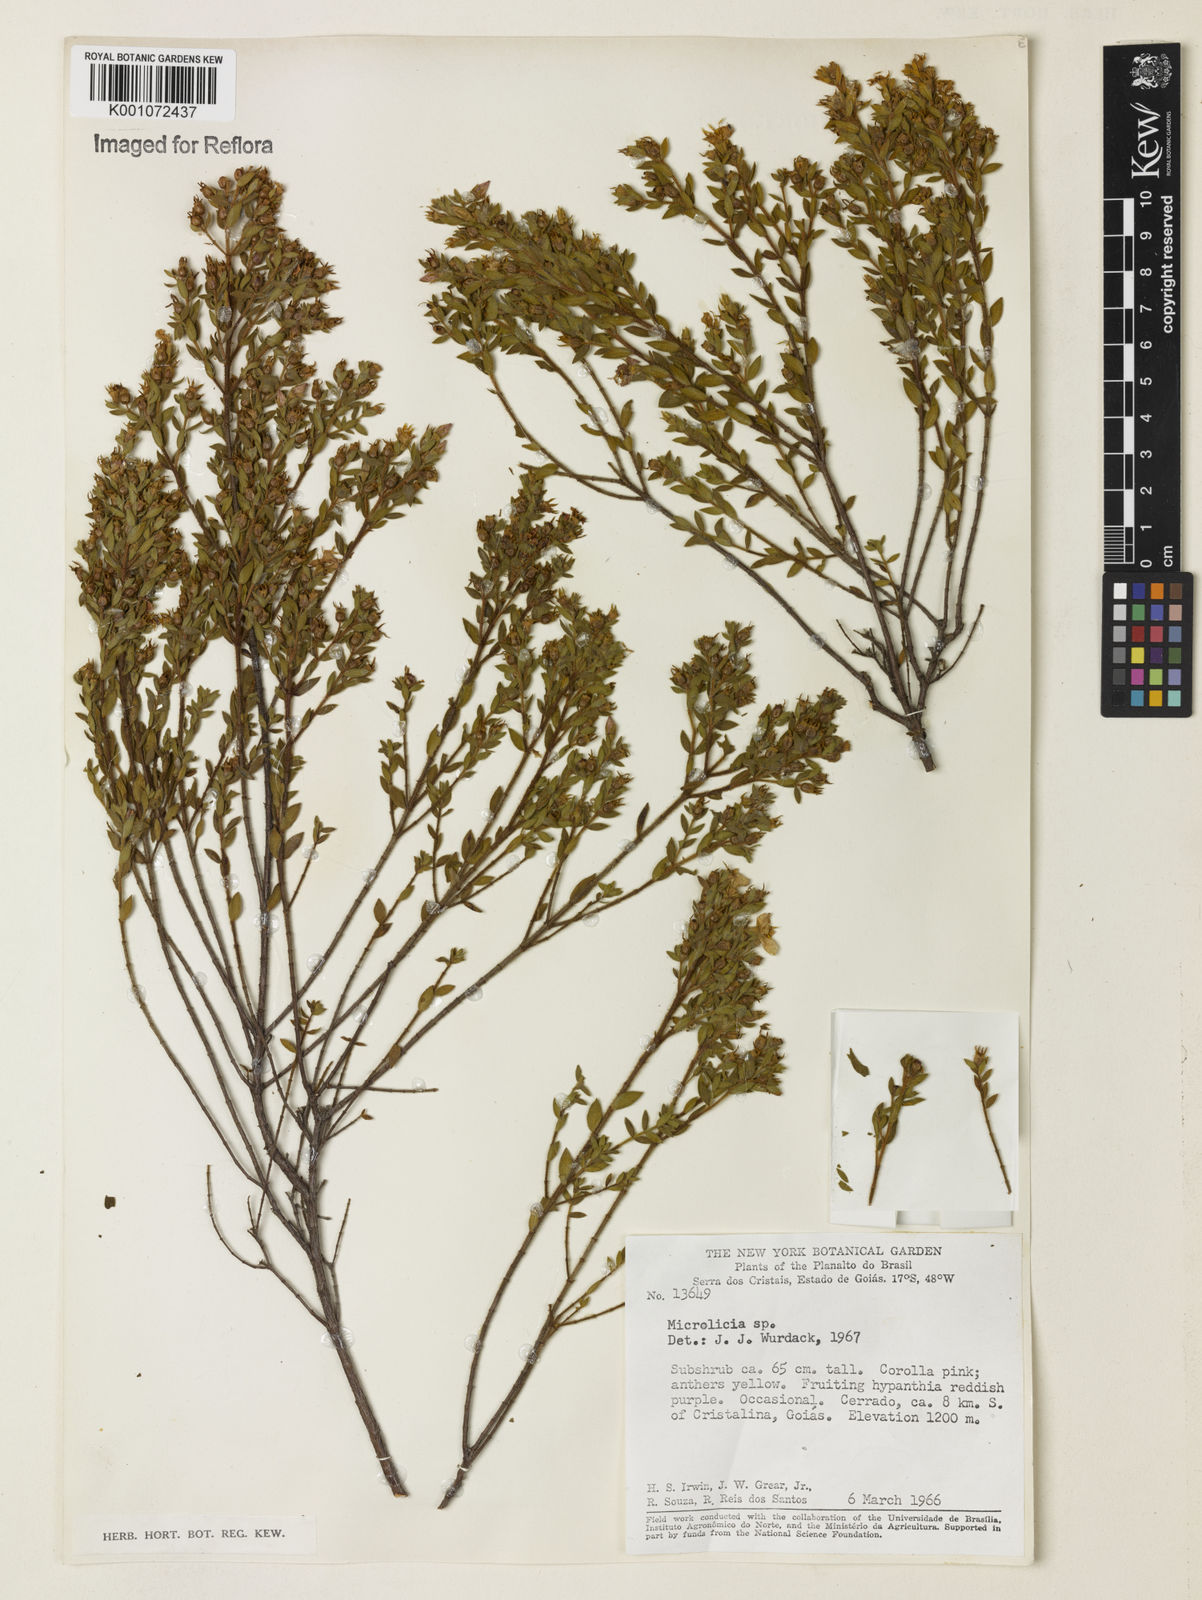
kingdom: Plantae
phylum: Tracheophyta
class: Magnoliopsida
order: Myrtales
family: Melastomataceae
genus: Microlicia
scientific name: Microlicia
